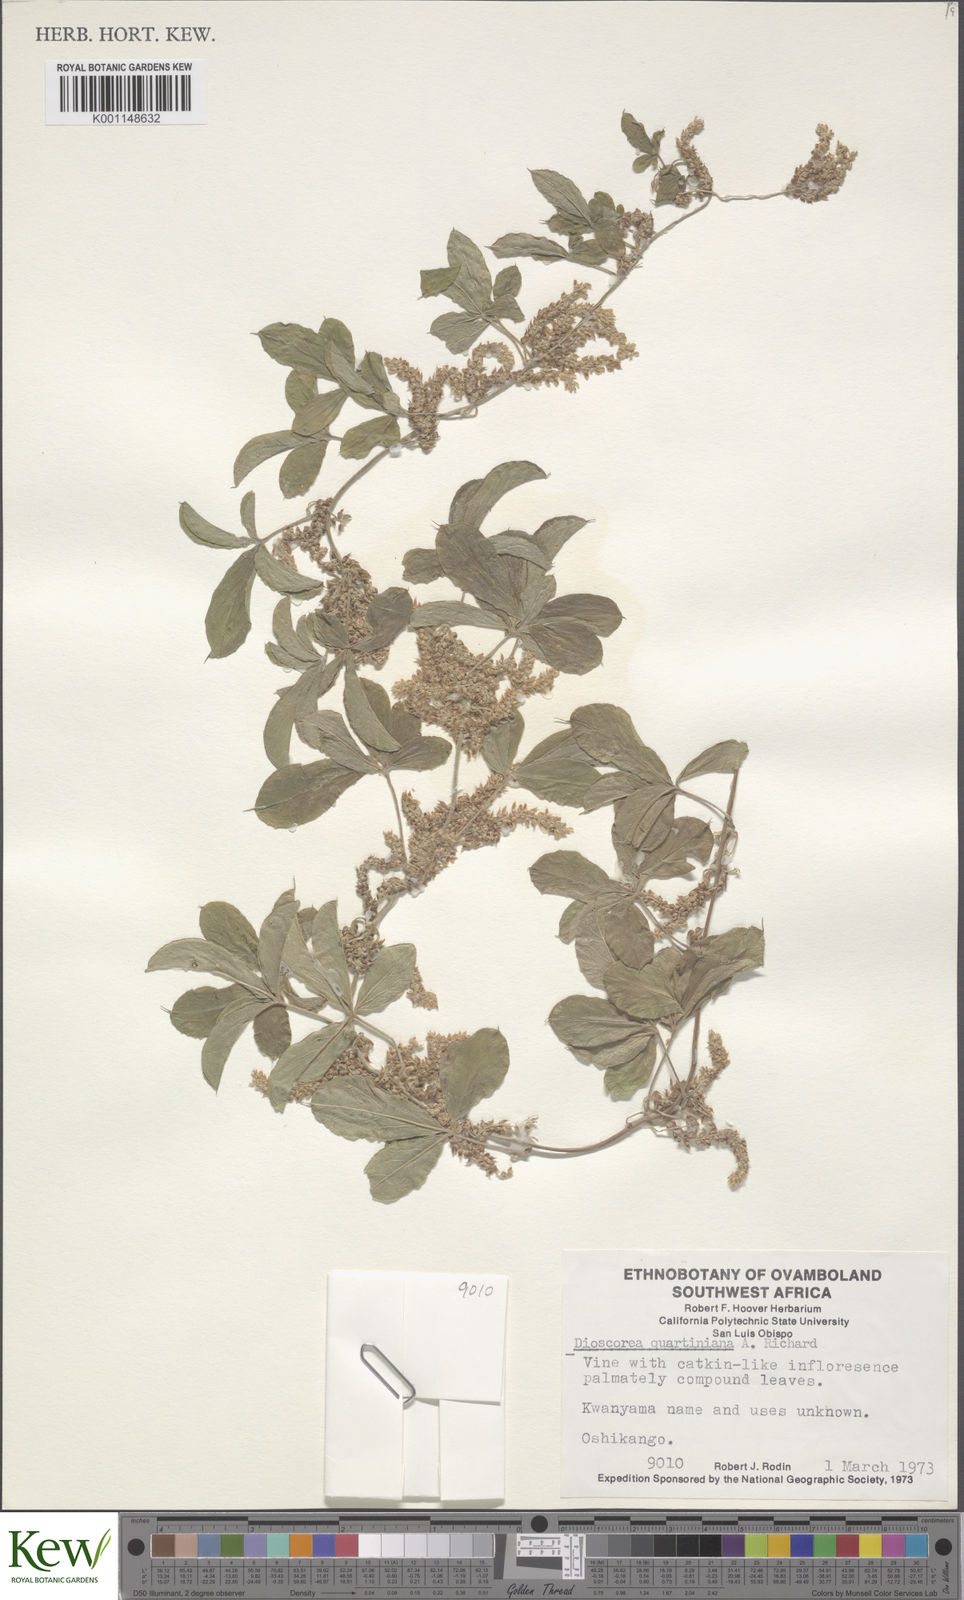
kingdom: Plantae
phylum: Tracheophyta
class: Liliopsida
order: Dioscoreales
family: Dioscoreaceae
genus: Dioscorea
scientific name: Dioscorea quartiniana
